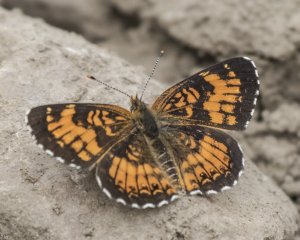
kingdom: Animalia
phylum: Arthropoda
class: Insecta
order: Lepidoptera
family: Nymphalidae
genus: Chlosyne
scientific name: Chlosyne harrisii
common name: Harris's Checkerspot
